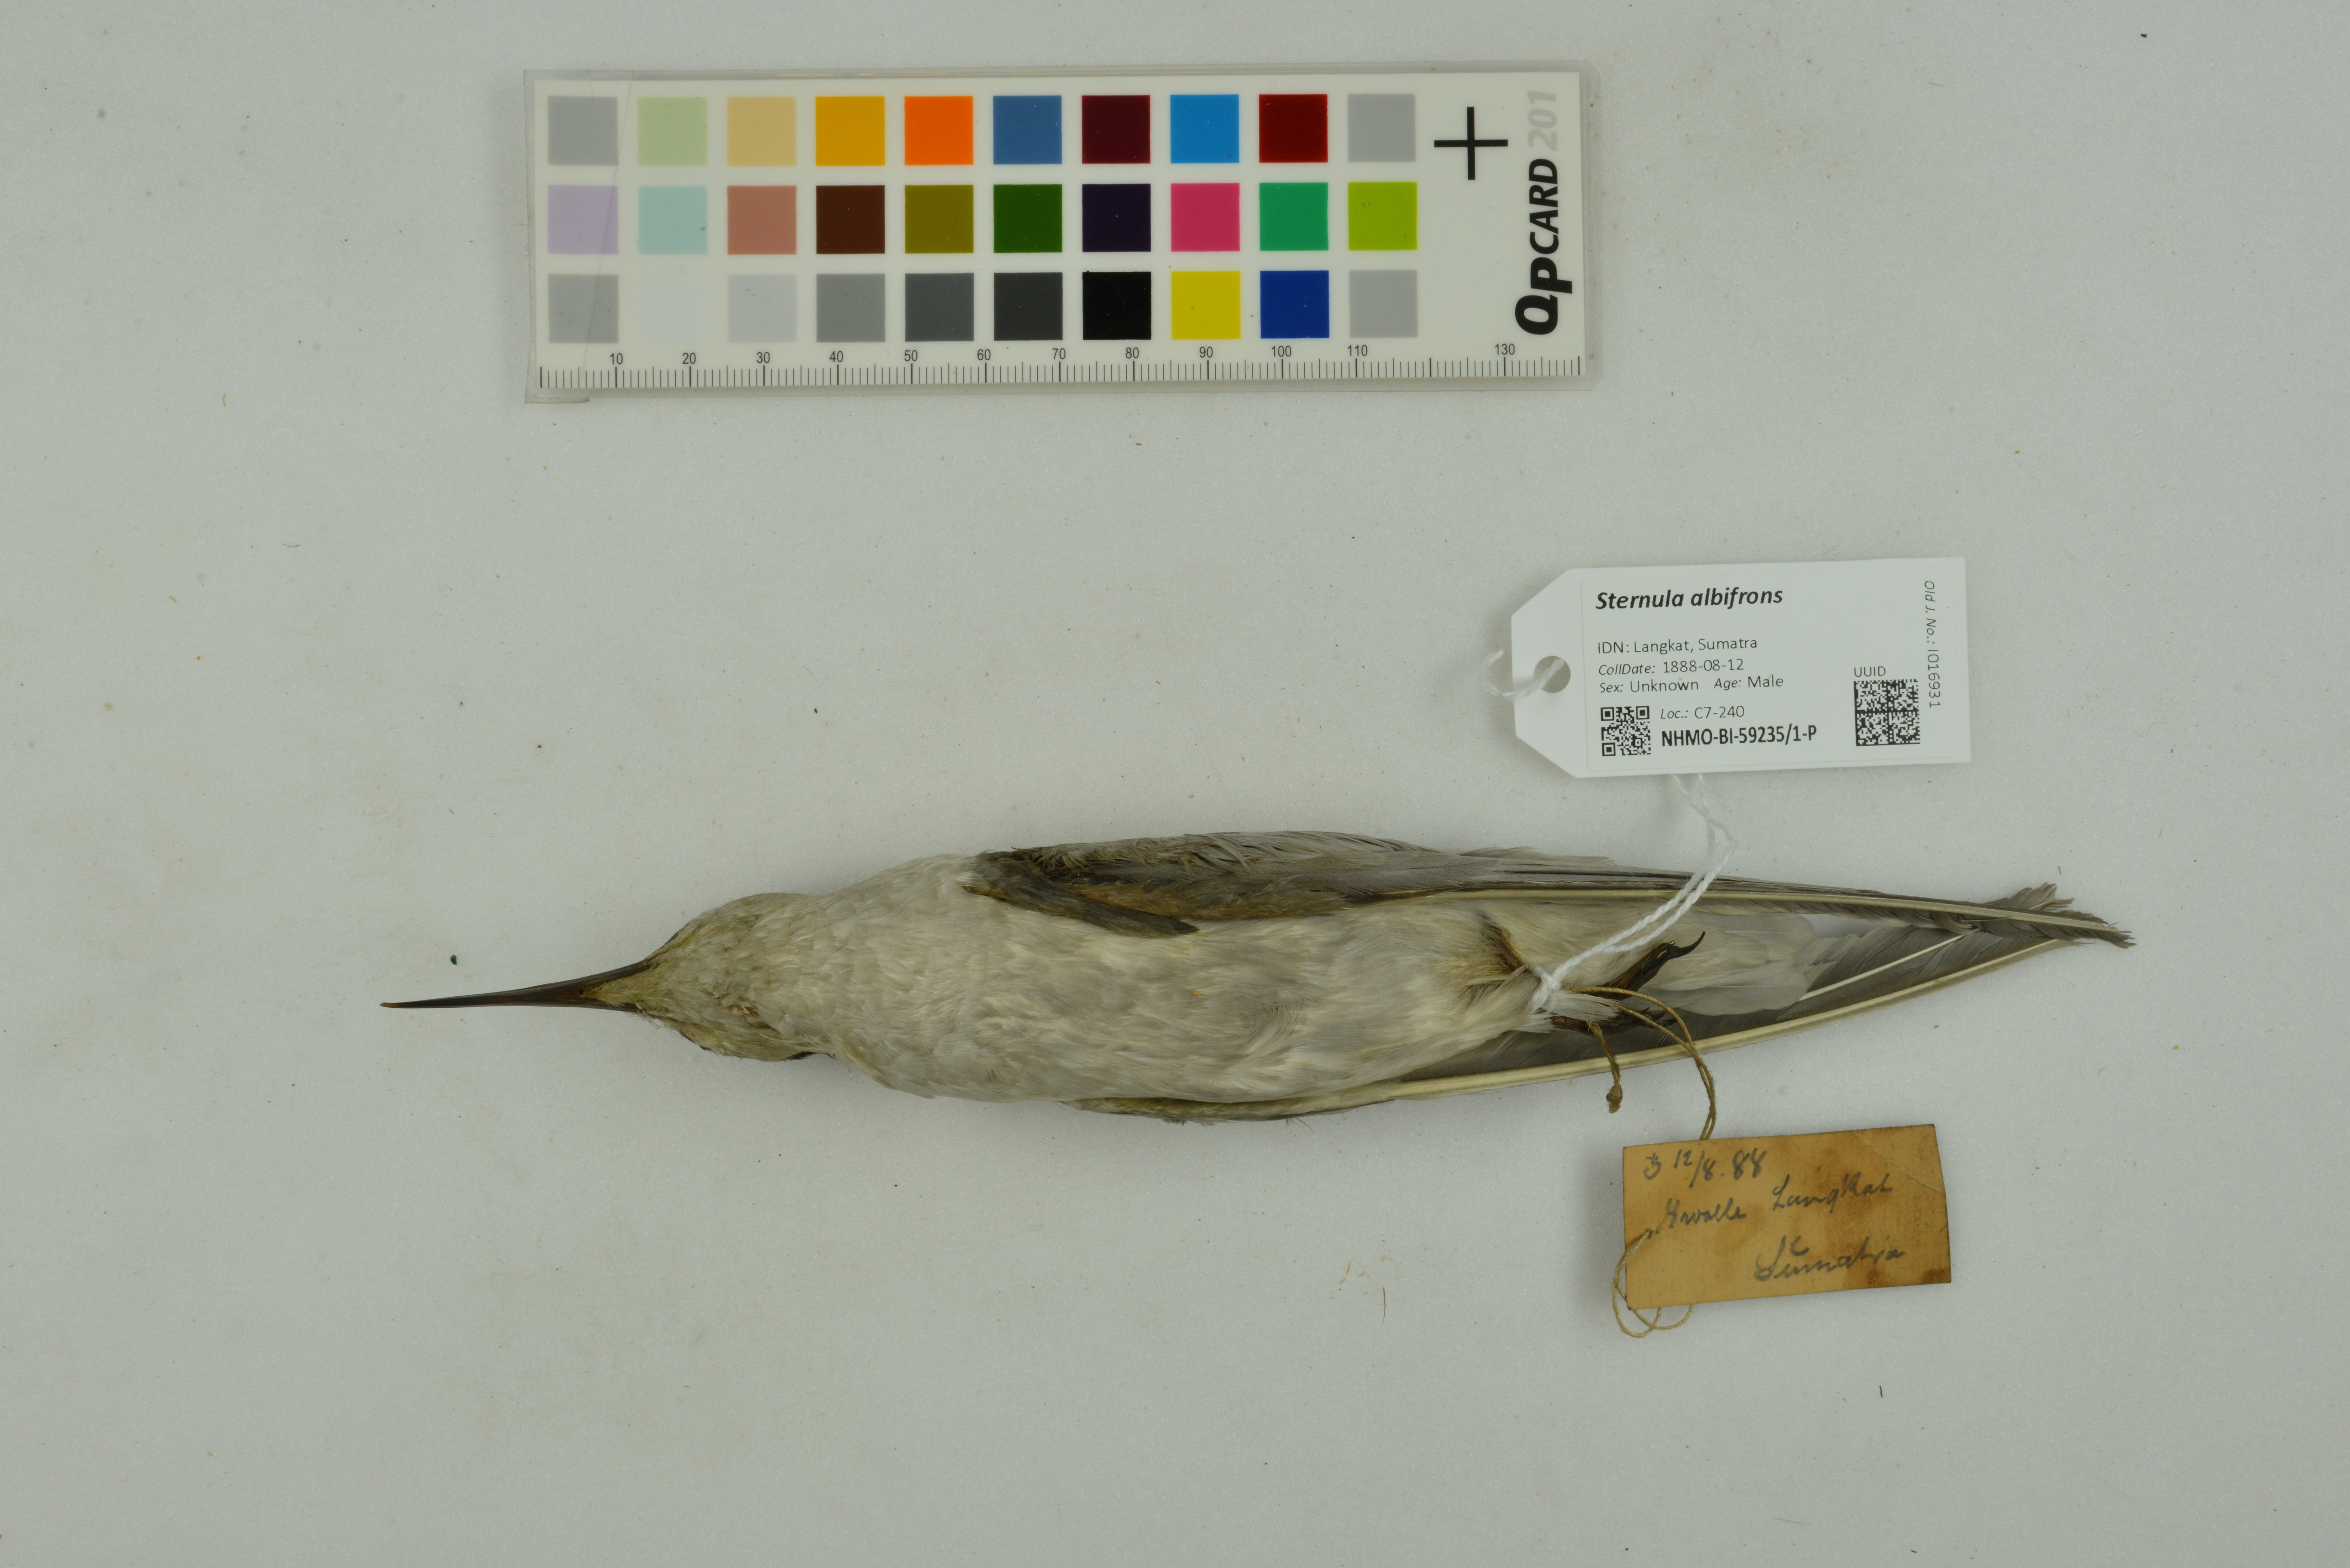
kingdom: Animalia
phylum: Chordata
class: Aves
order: Charadriiformes
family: Laridae
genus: Sternula
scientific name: Sternula albifrons
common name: Little tern
